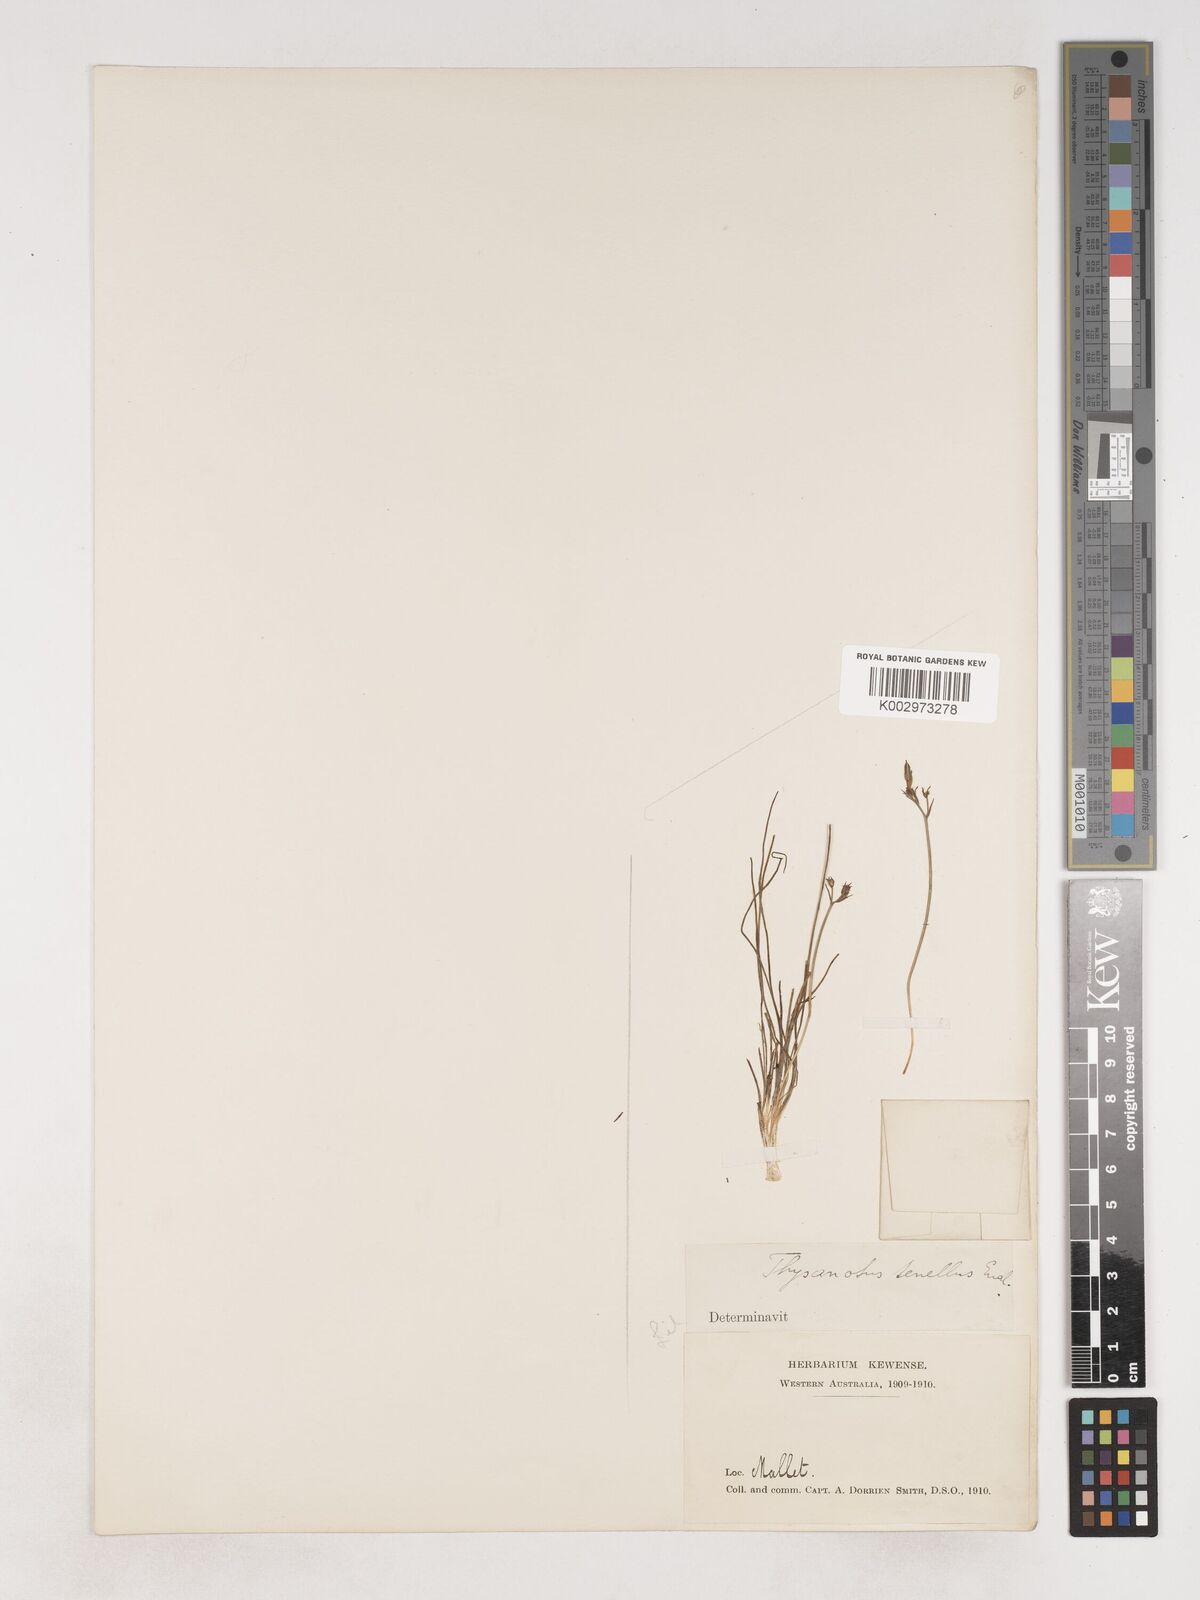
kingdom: Plantae
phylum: Tracheophyta
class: Liliopsida
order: Asparagales
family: Asparagaceae
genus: Thysanotus
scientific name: Thysanotus tenellus
